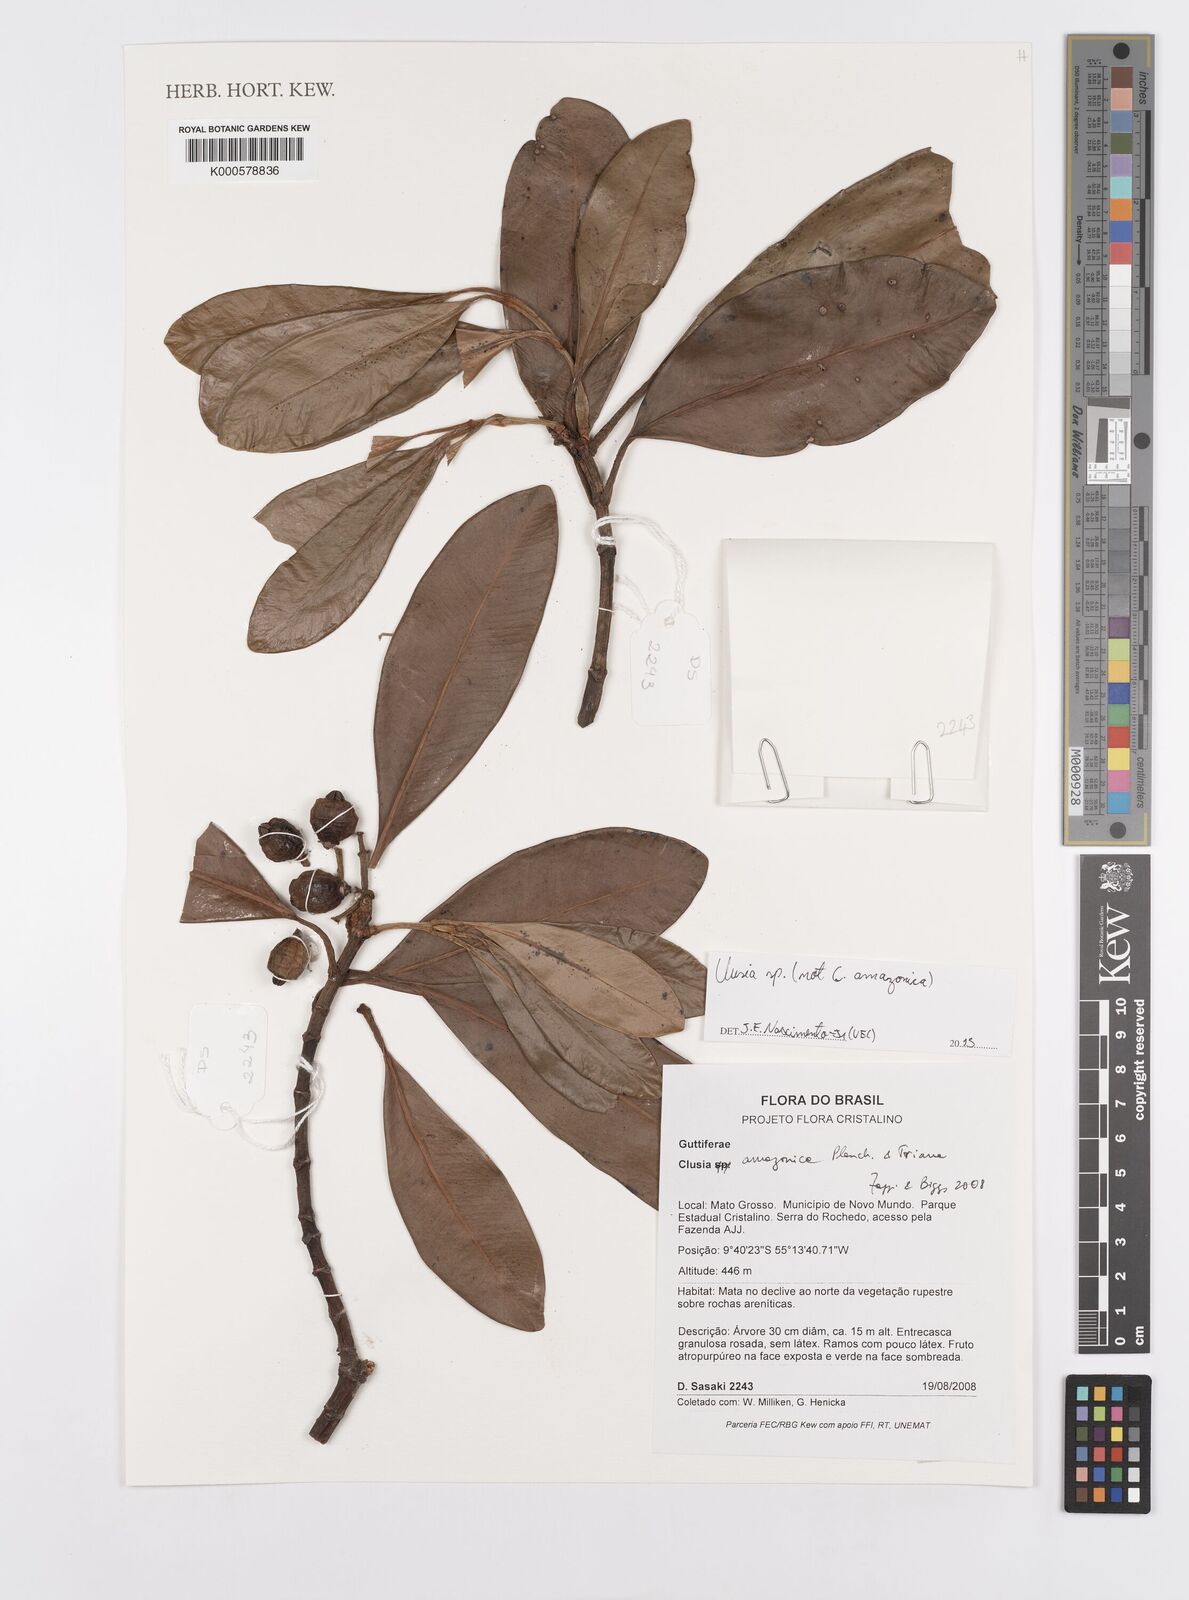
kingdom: Plantae
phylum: Tracheophyta
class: Magnoliopsida
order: Sapindales
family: Rutaceae
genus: Cneoridium
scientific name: Cneoridium
